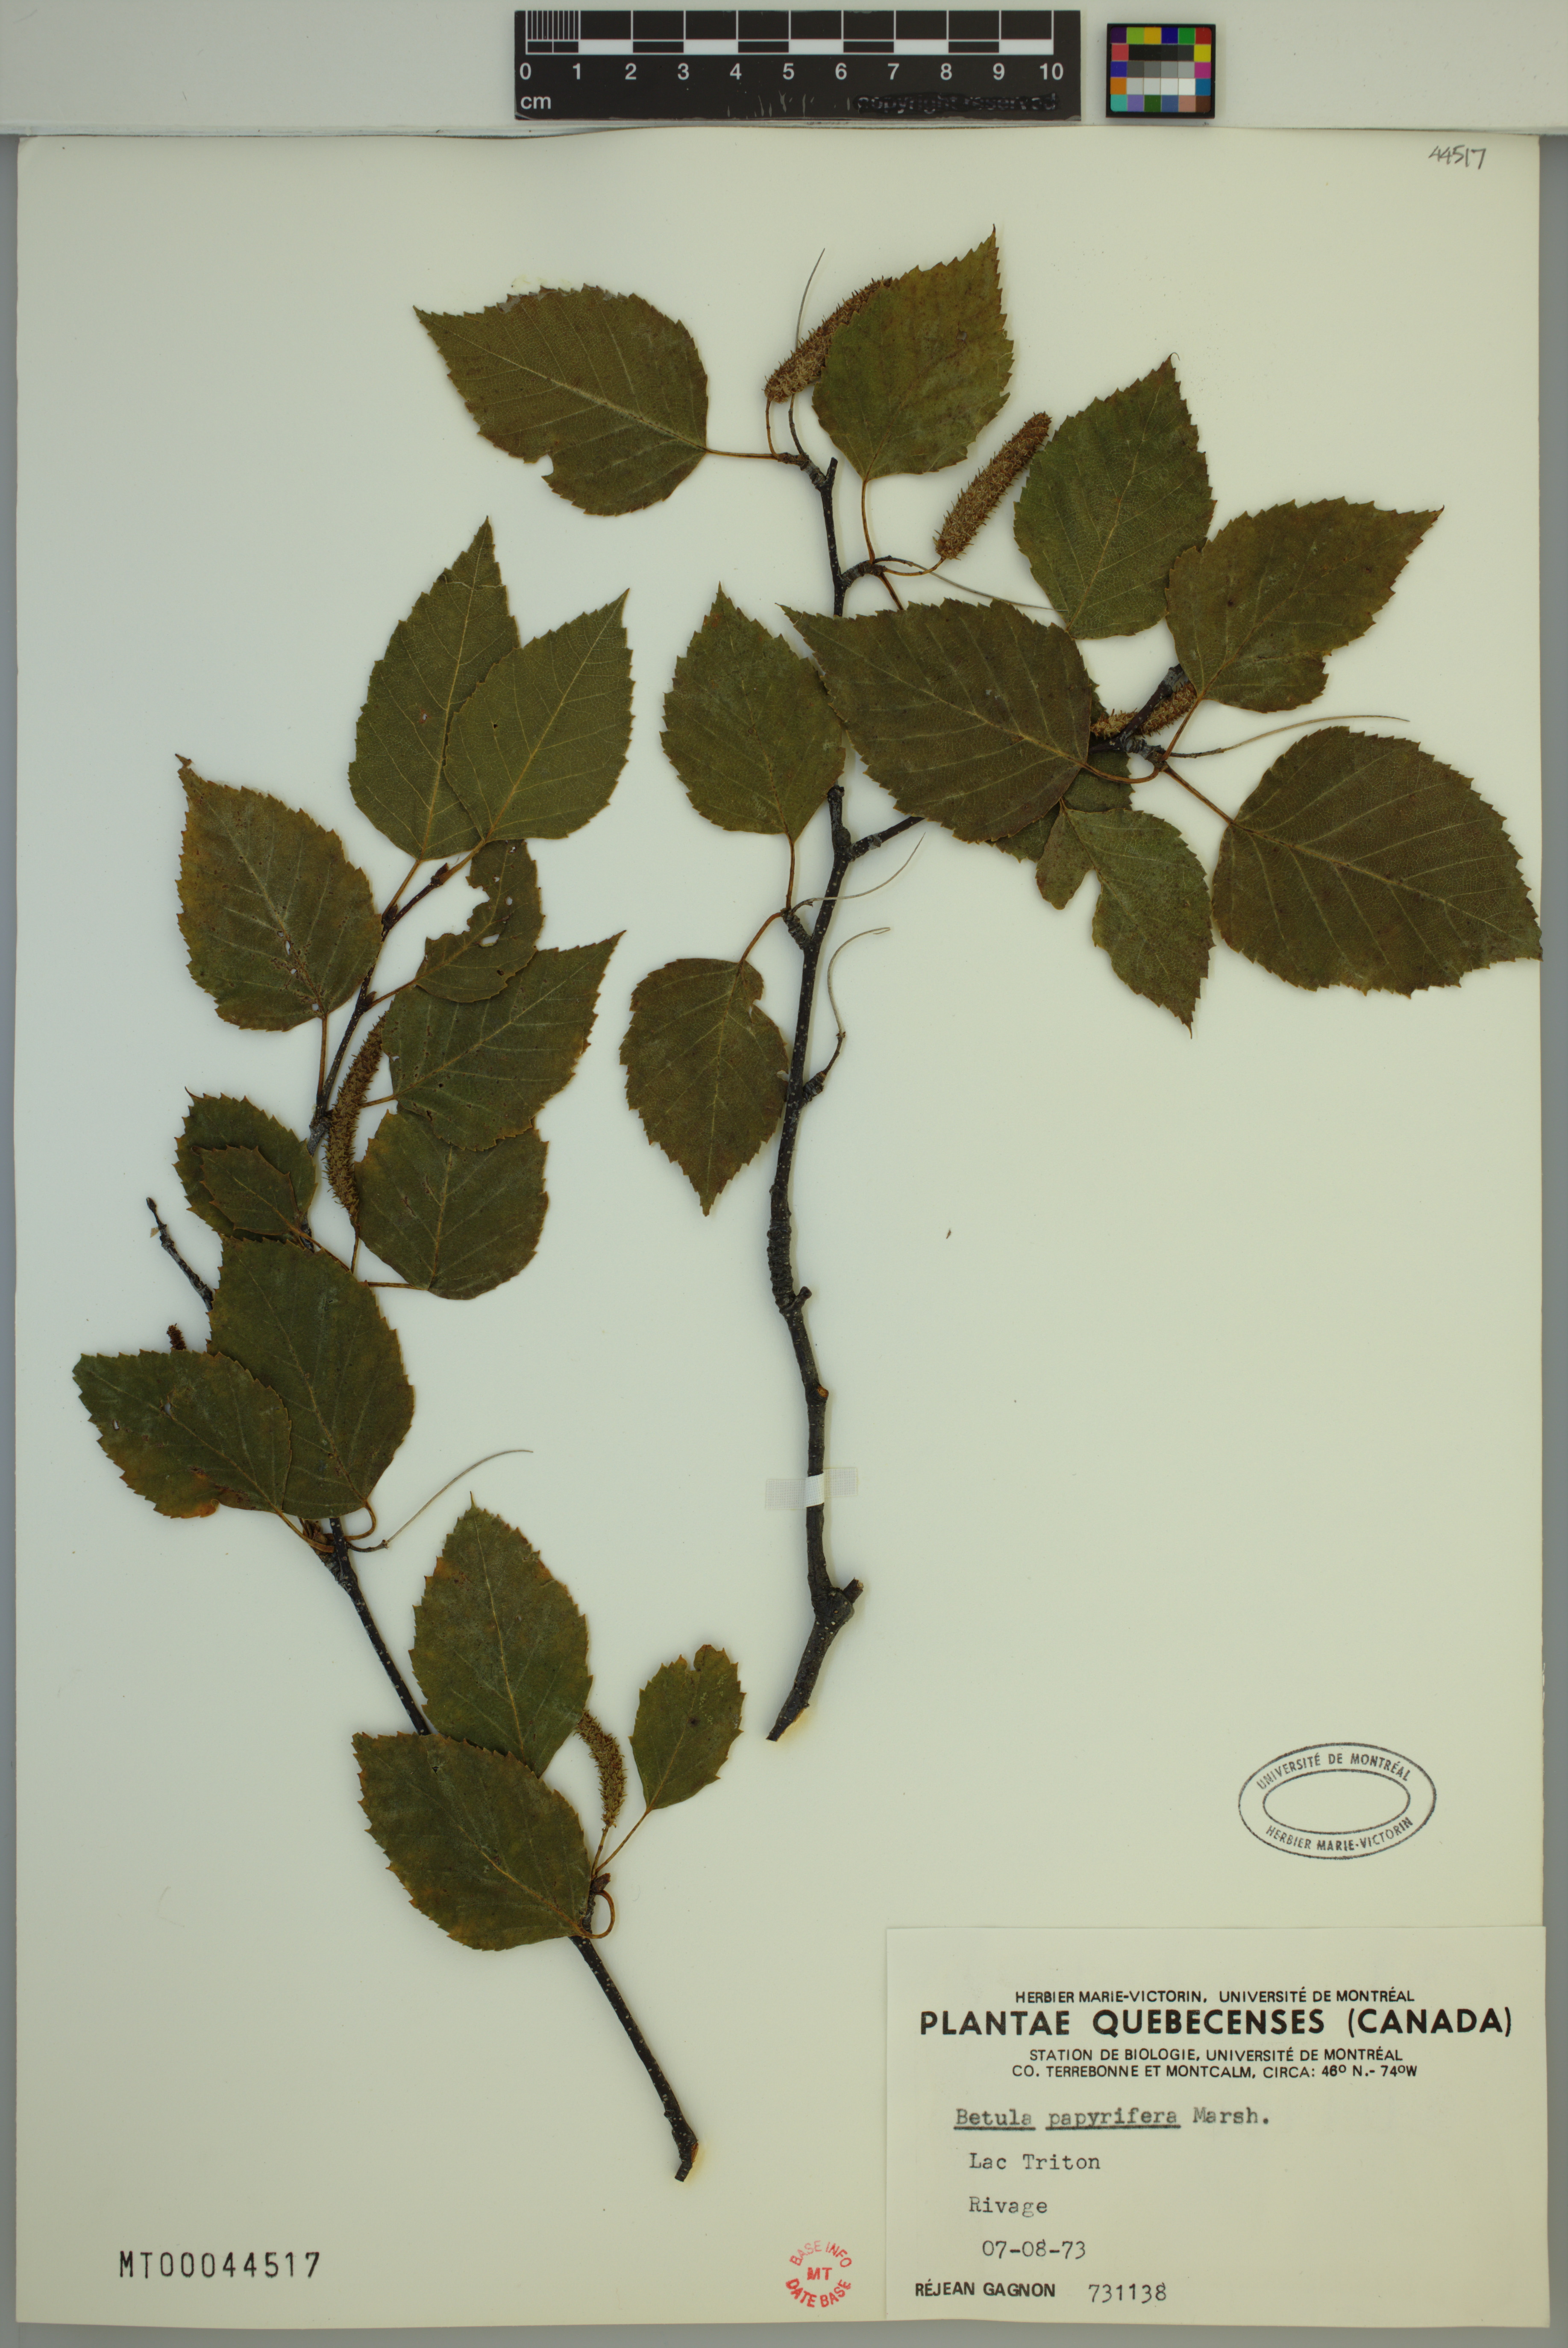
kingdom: Plantae
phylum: Tracheophyta
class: Magnoliopsida
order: Fagales
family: Betulaceae
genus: Betula
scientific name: Betula papyrifera
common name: Paper birch
